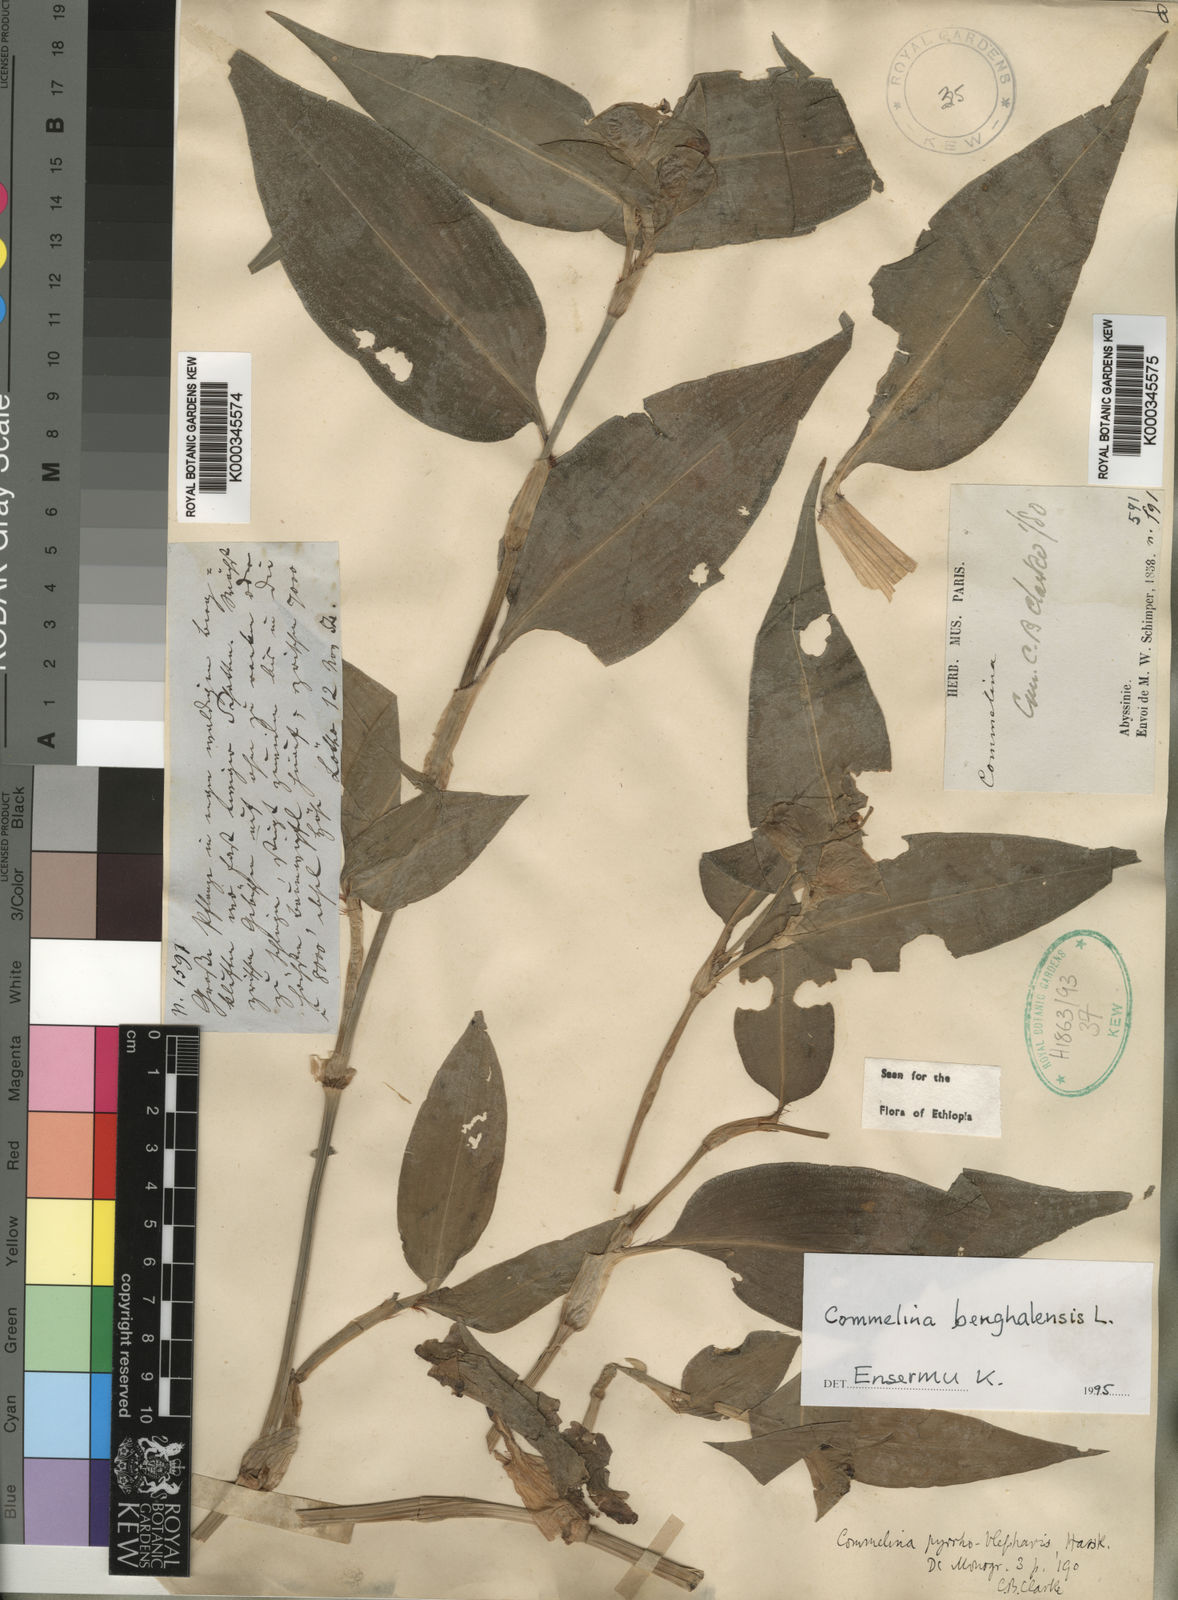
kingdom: Plantae
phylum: Tracheophyta
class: Liliopsida
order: Commelinales
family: Commelinaceae
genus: Commelina
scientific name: Commelina benghalensis
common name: Jio
